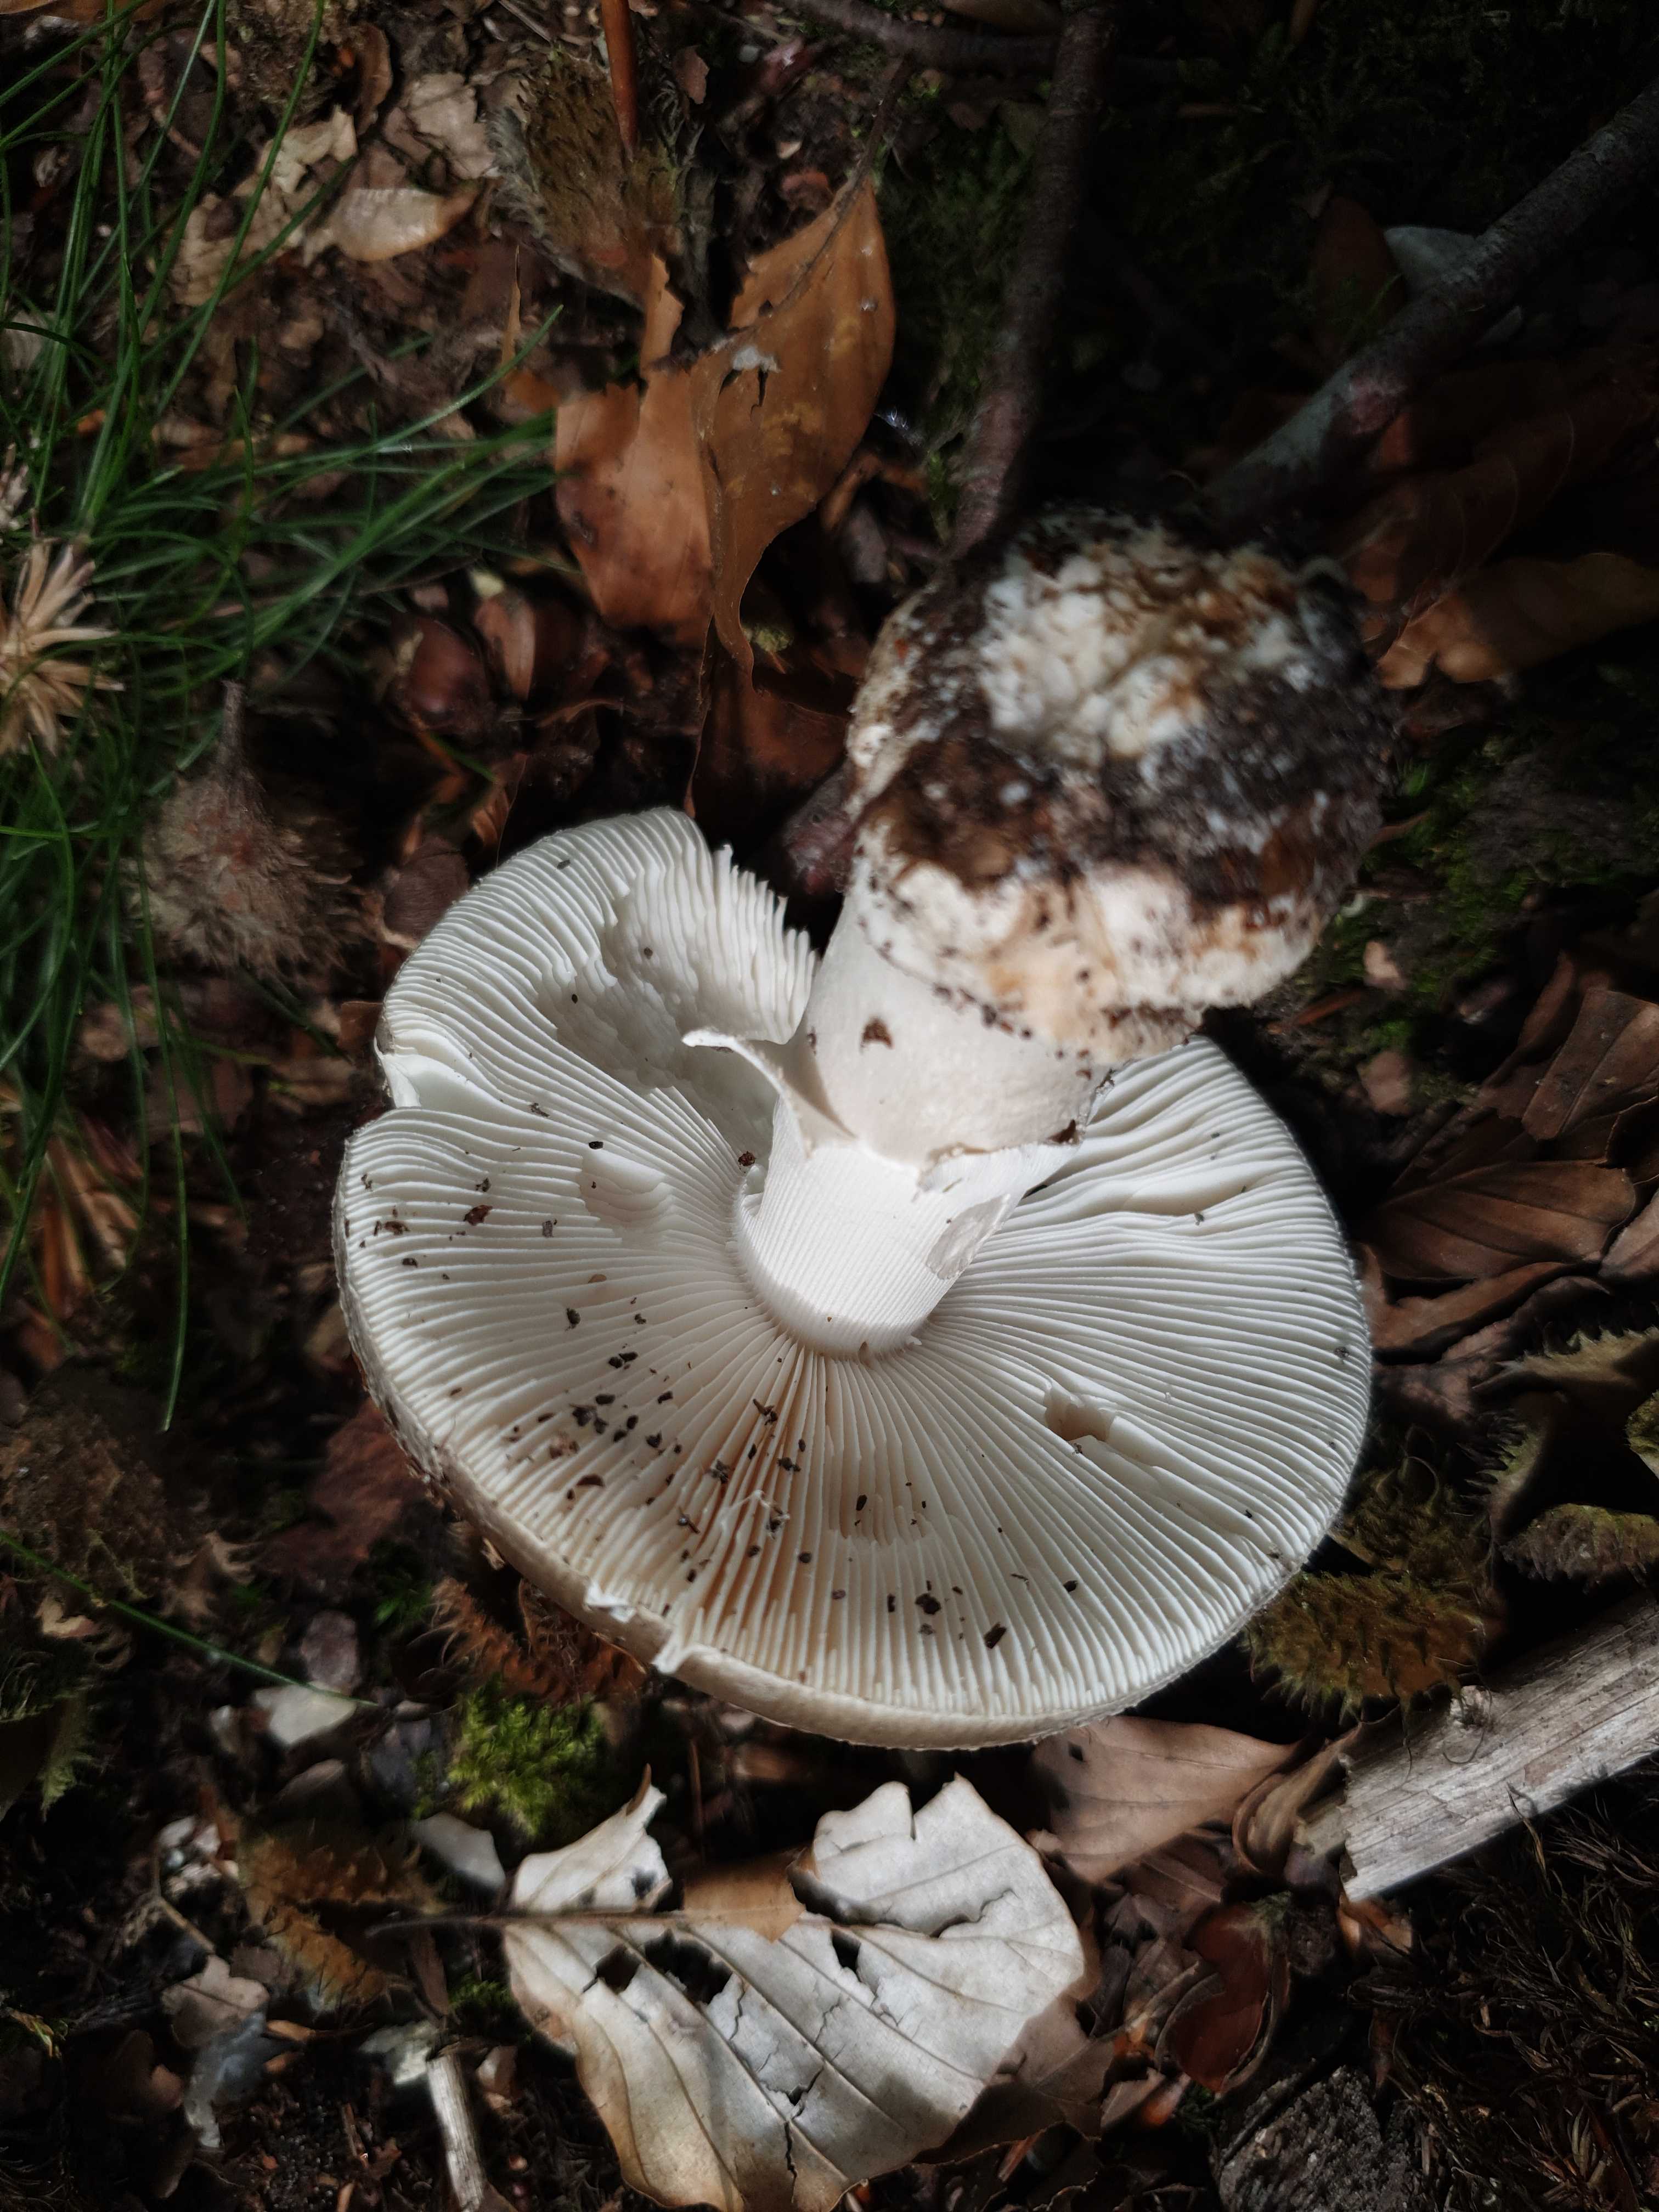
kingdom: Fungi
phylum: Basidiomycota
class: Agaricomycetes
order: Agaricales
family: Amanitaceae
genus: Amanita
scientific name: Amanita
